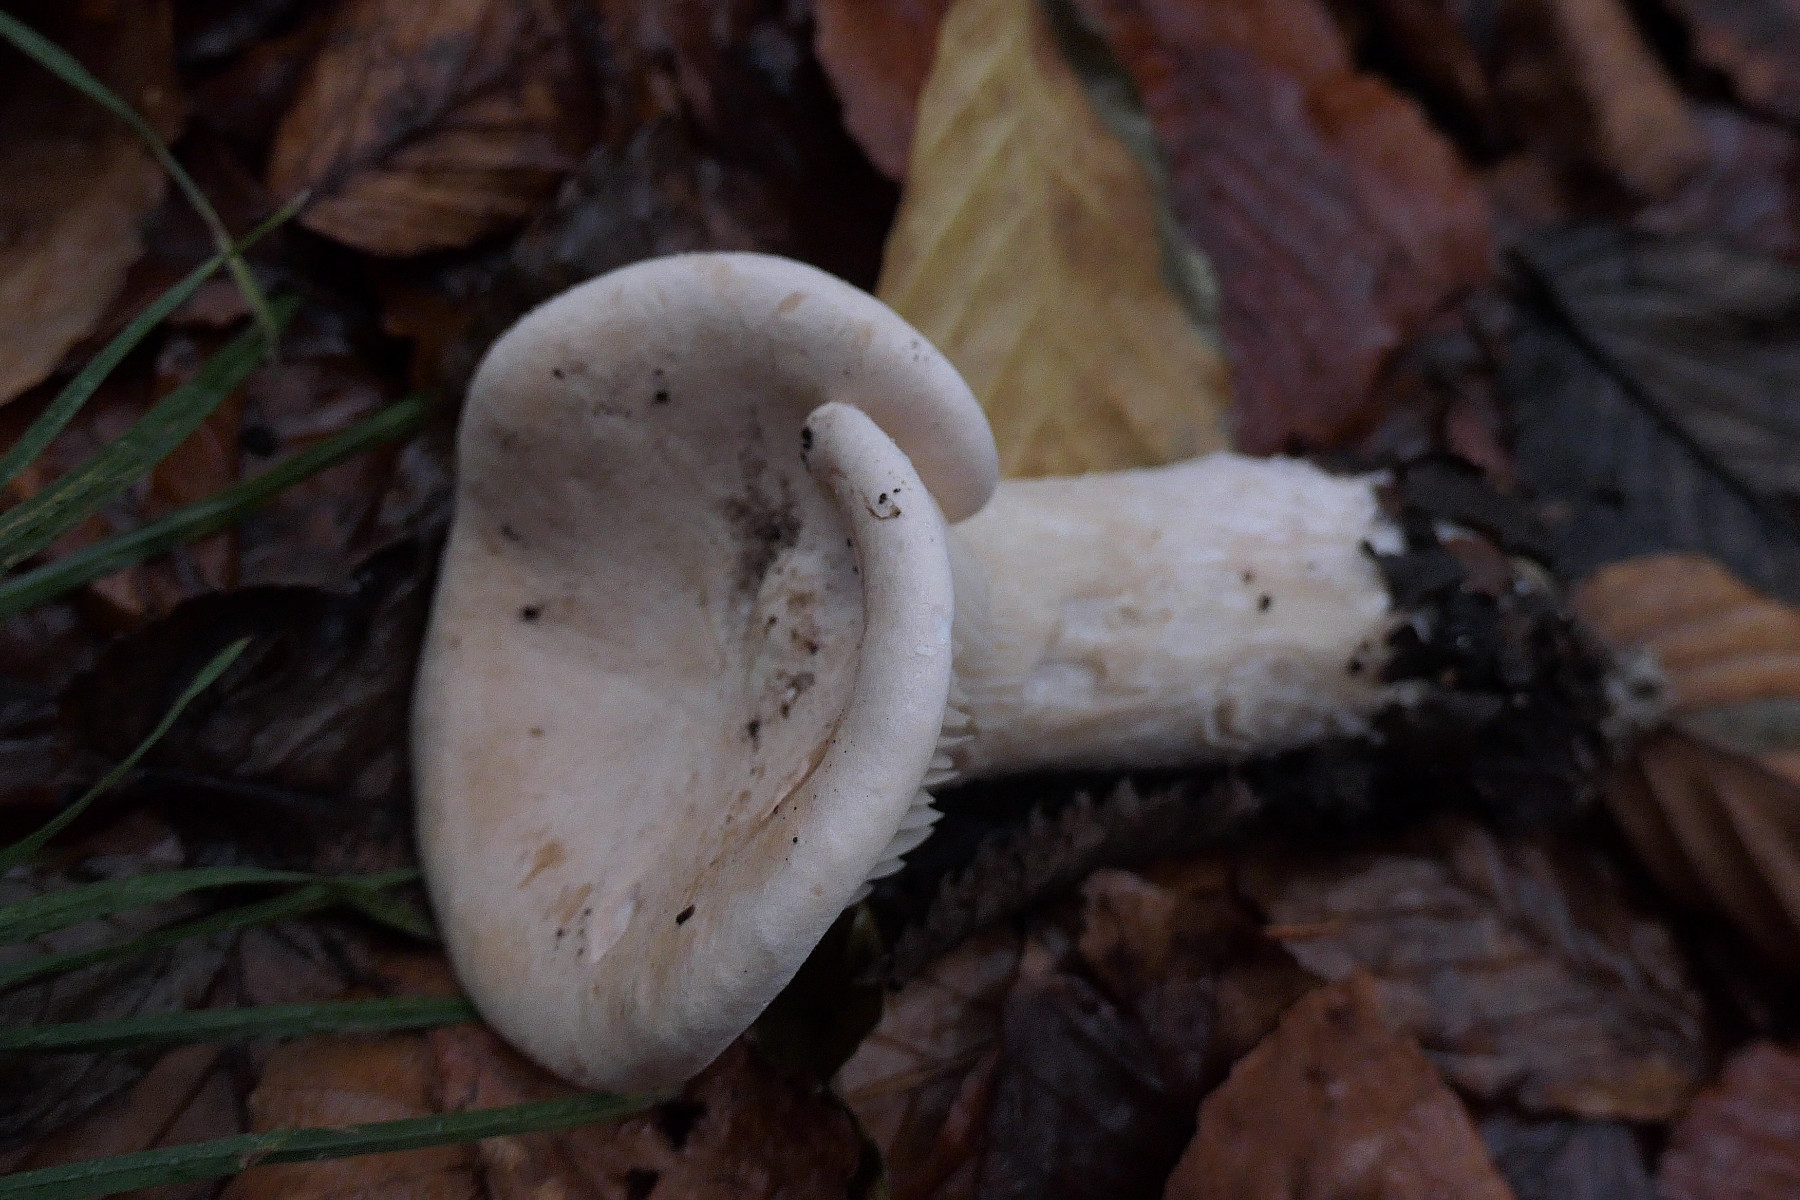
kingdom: Fungi
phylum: Basidiomycota
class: Agaricomycetes
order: Agaricales
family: Tricholomataceae
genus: Infundibulicybe
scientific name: Infundibulicybe geotropa
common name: stor tragthat
